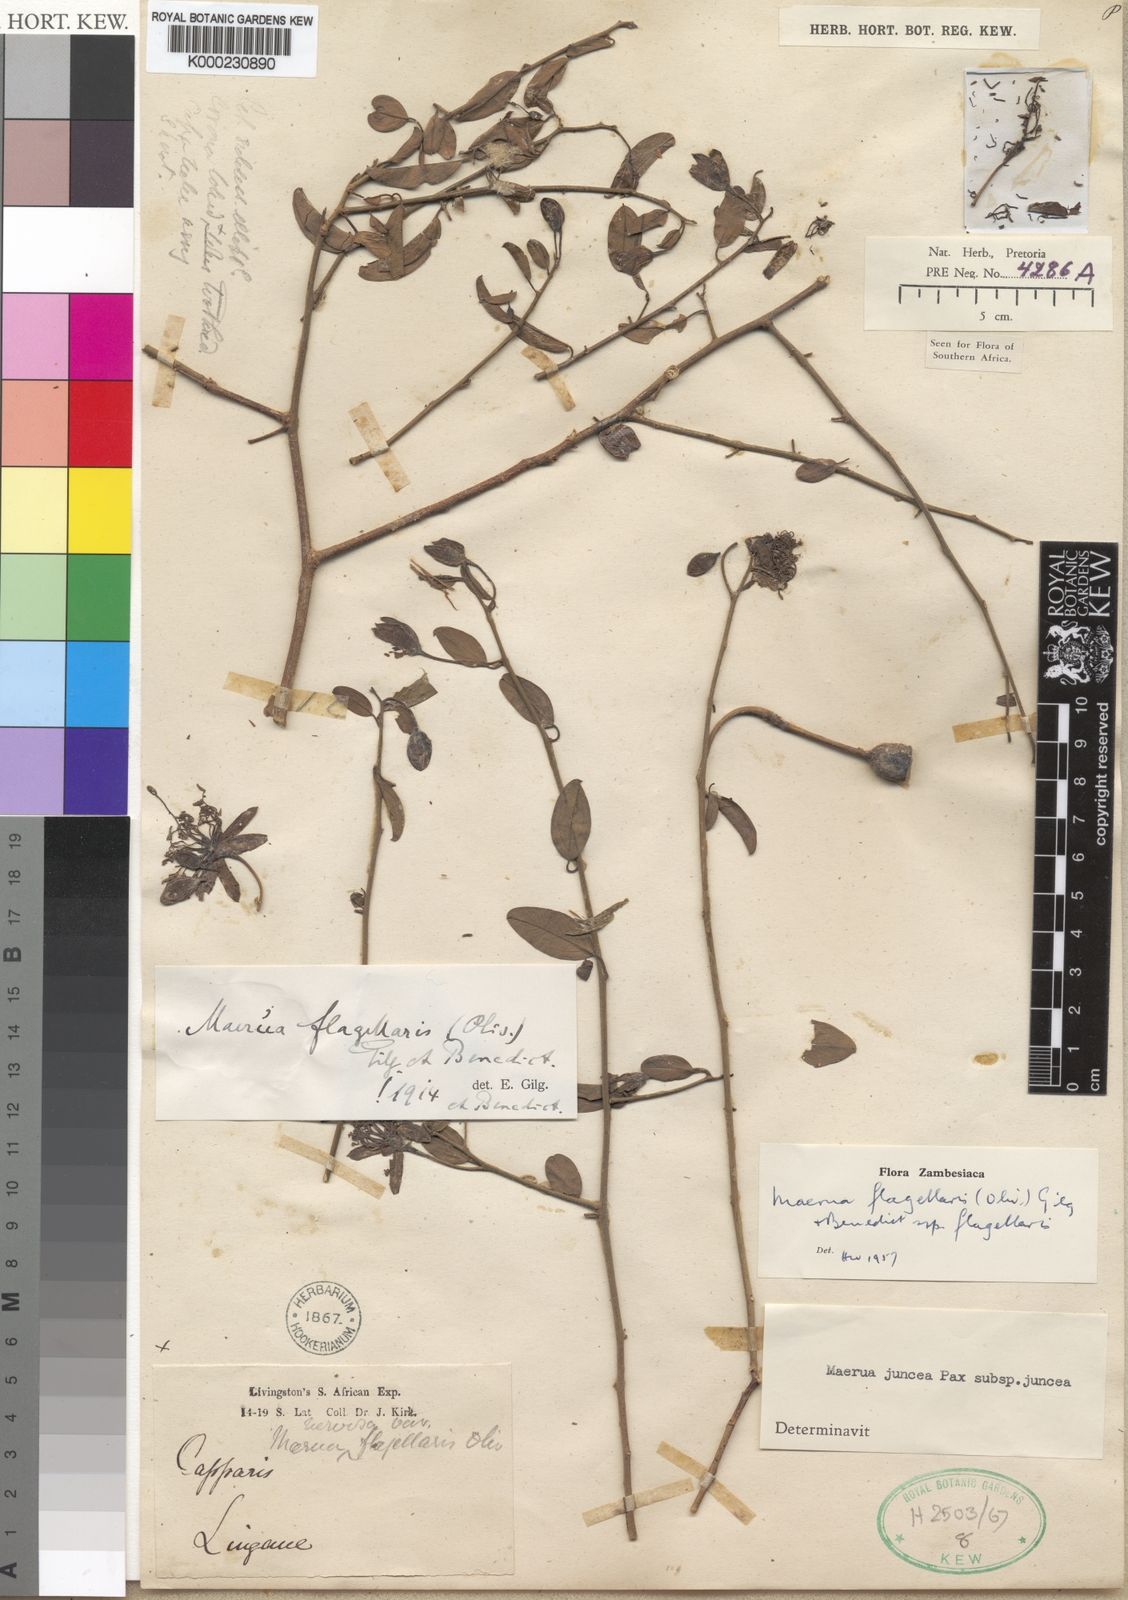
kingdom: Plantae
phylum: Tracheophyta
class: Magnoliopsida
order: Brassicales
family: Capparaceae
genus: Maerua
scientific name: Maerua juncea
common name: Rough-skinned bush cherry
